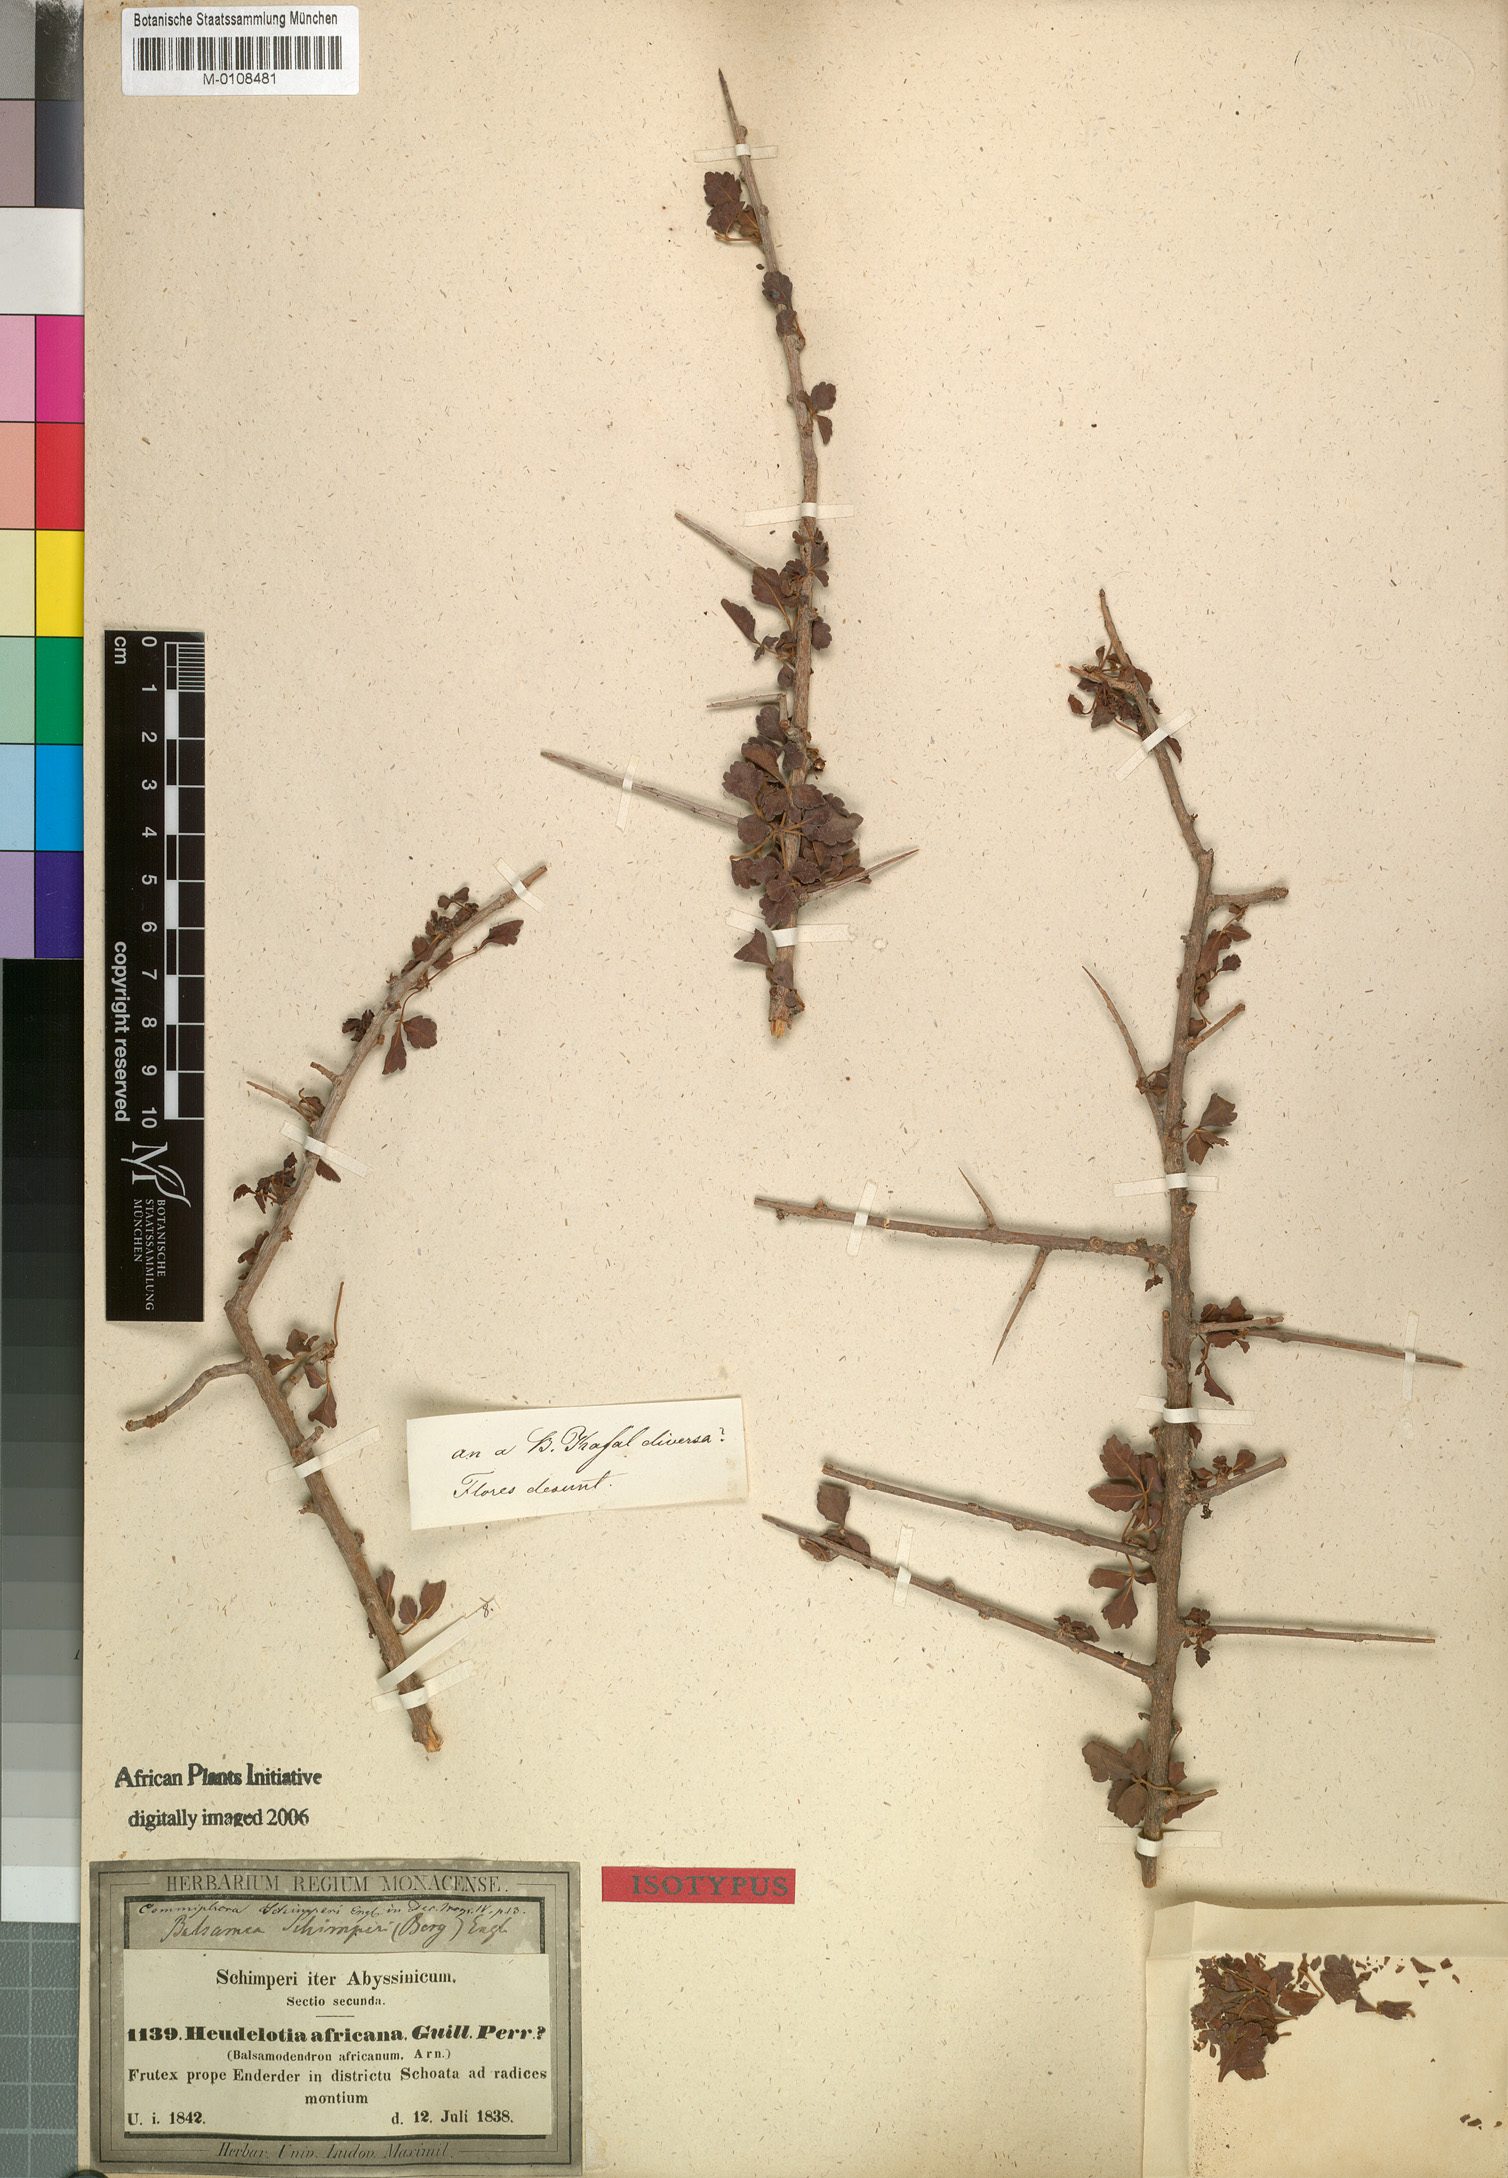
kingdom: Plantae
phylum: Tracheophyta
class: Magnoliopsida
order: Sapindales
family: Burseraceae
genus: Commiphora
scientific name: Commiphora schimperi
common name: Glossy-leaved corkwood
